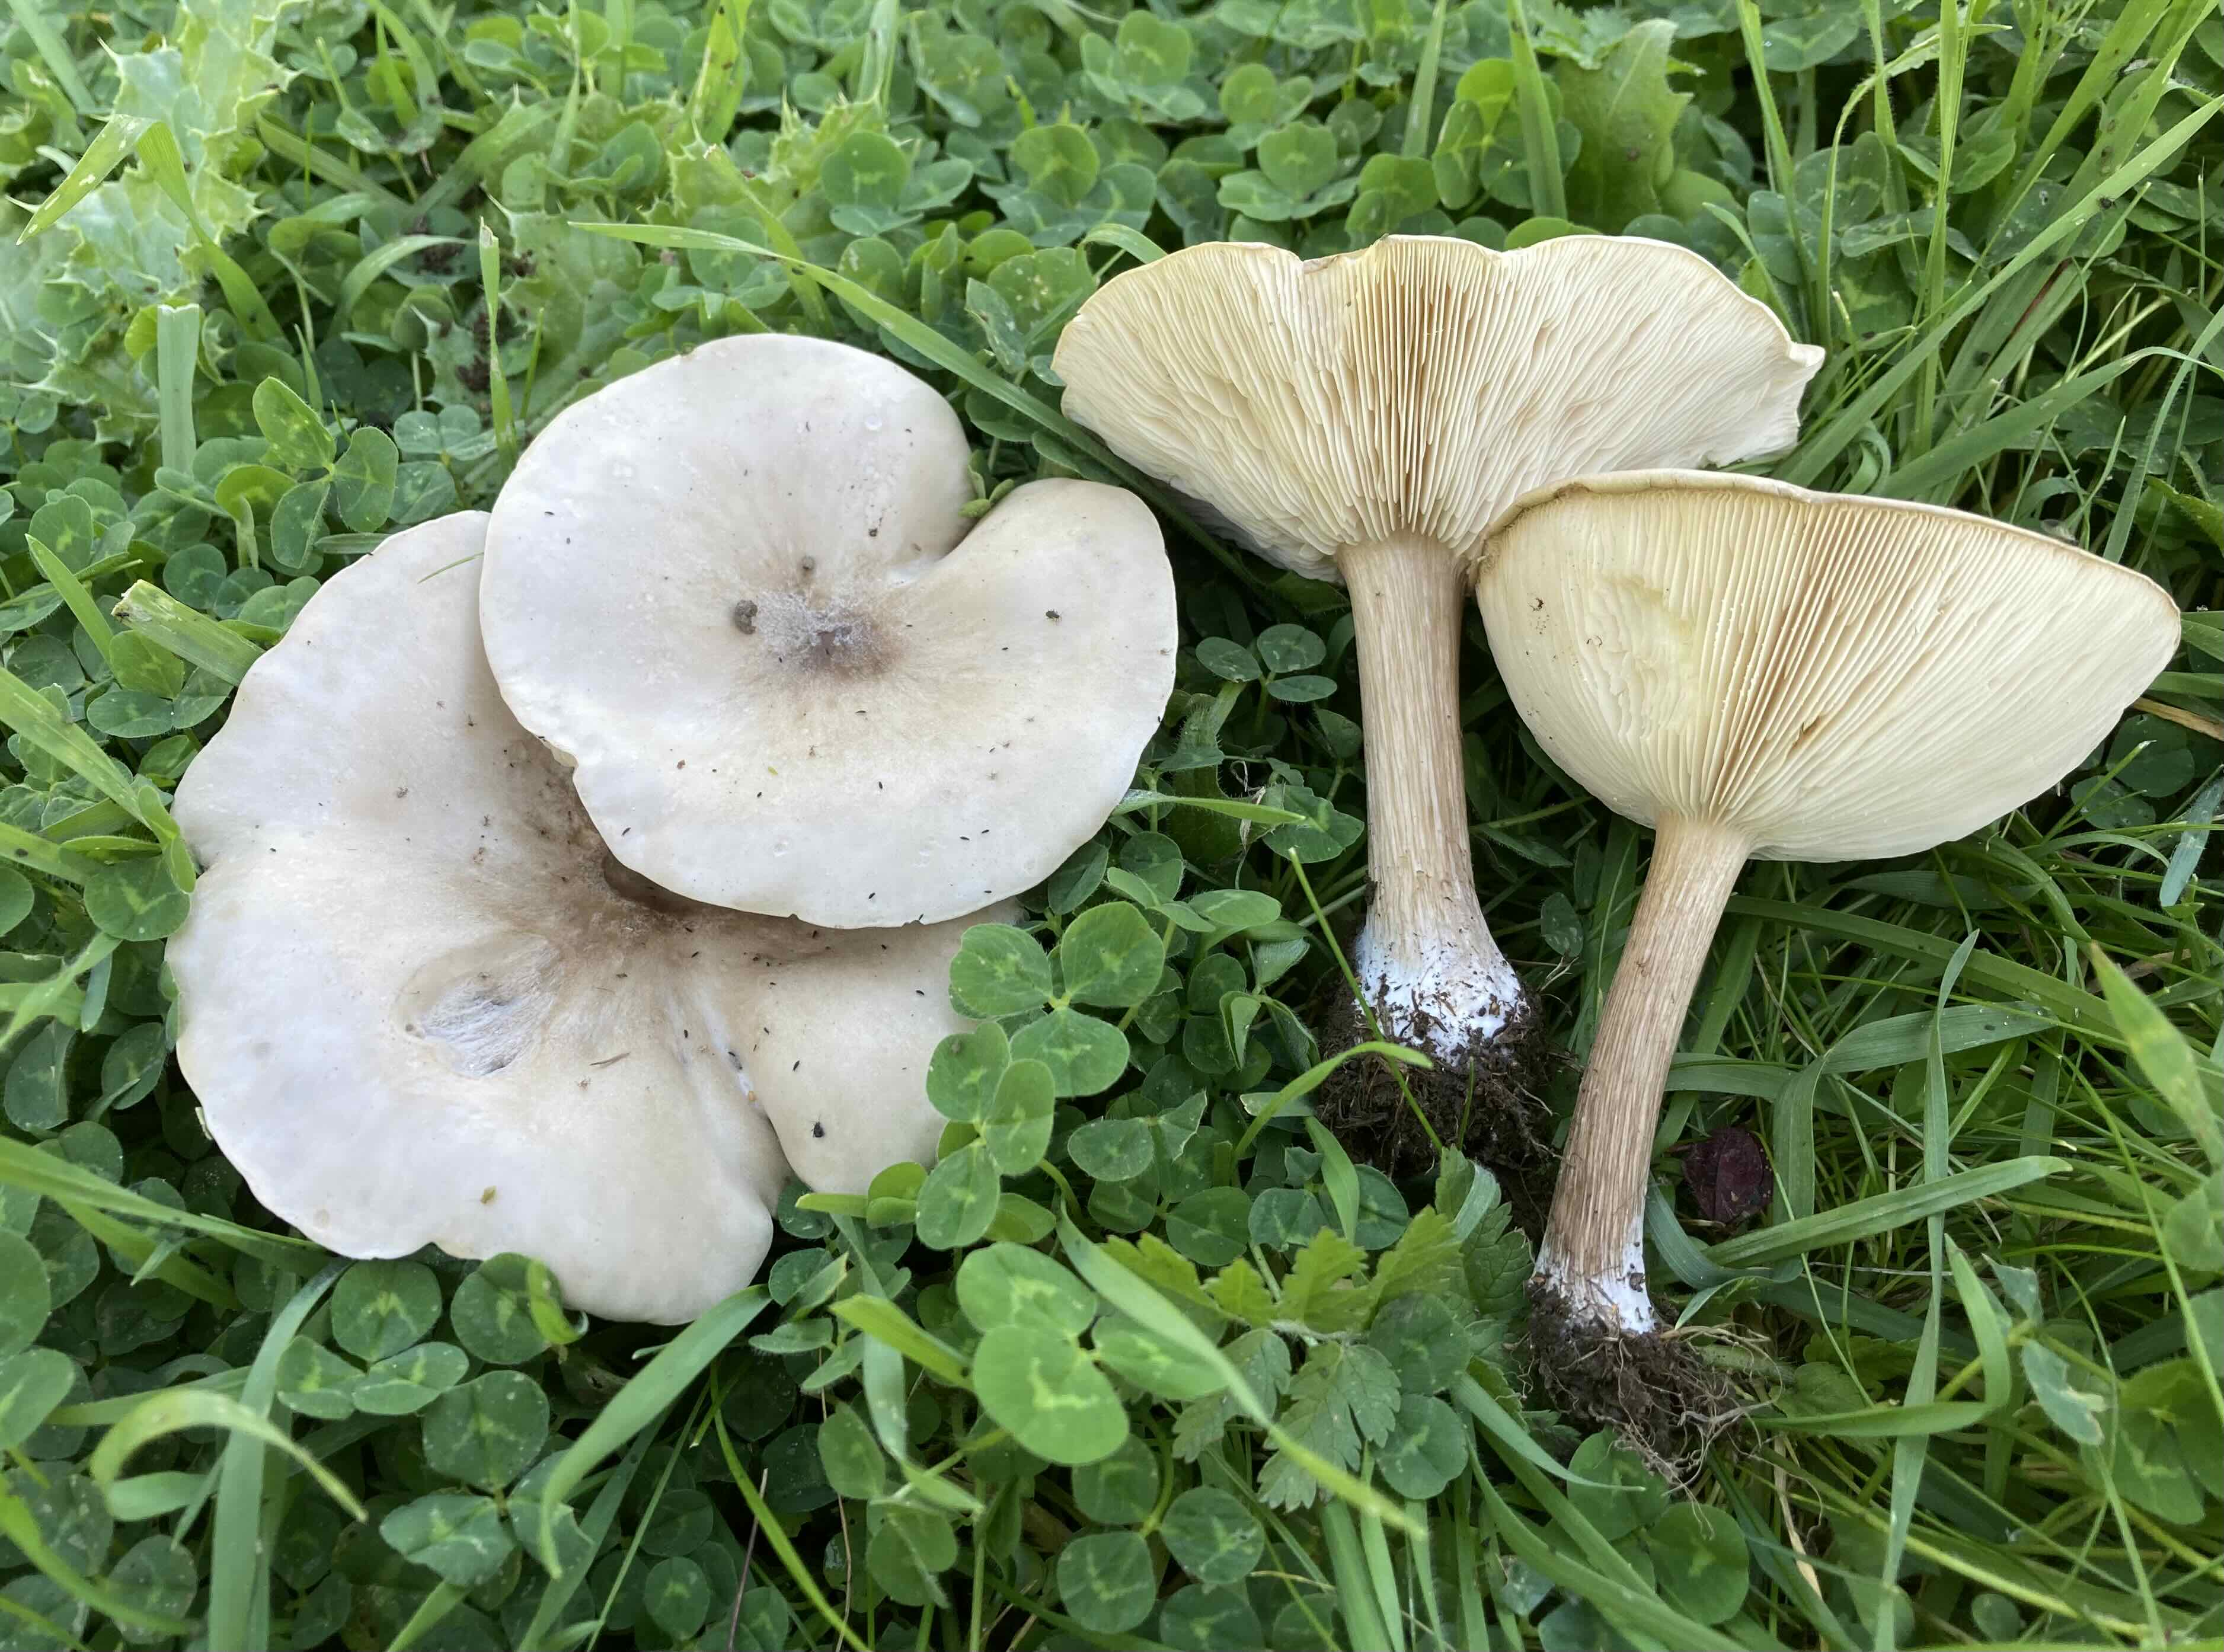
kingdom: Fungi
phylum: Basidiomycota
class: Agaricomycetes
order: Agaricales
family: Tricholomataceae
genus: Melanoleuca
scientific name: Melanoleuca
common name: munkehat
